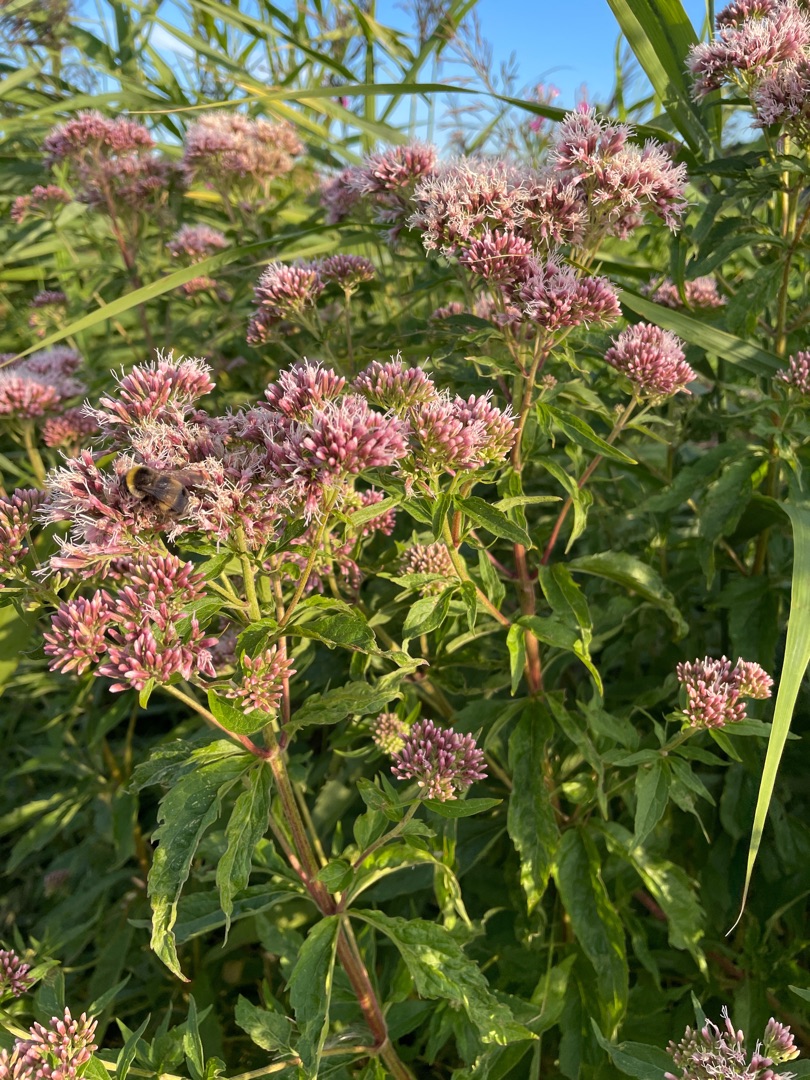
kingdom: Plantae
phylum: Tracheophyta
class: Magnoliopsida
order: Asterales
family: Asteraceae
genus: Eupatorium
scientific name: Eupatorium cannabinum
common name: Hjortetrøst
